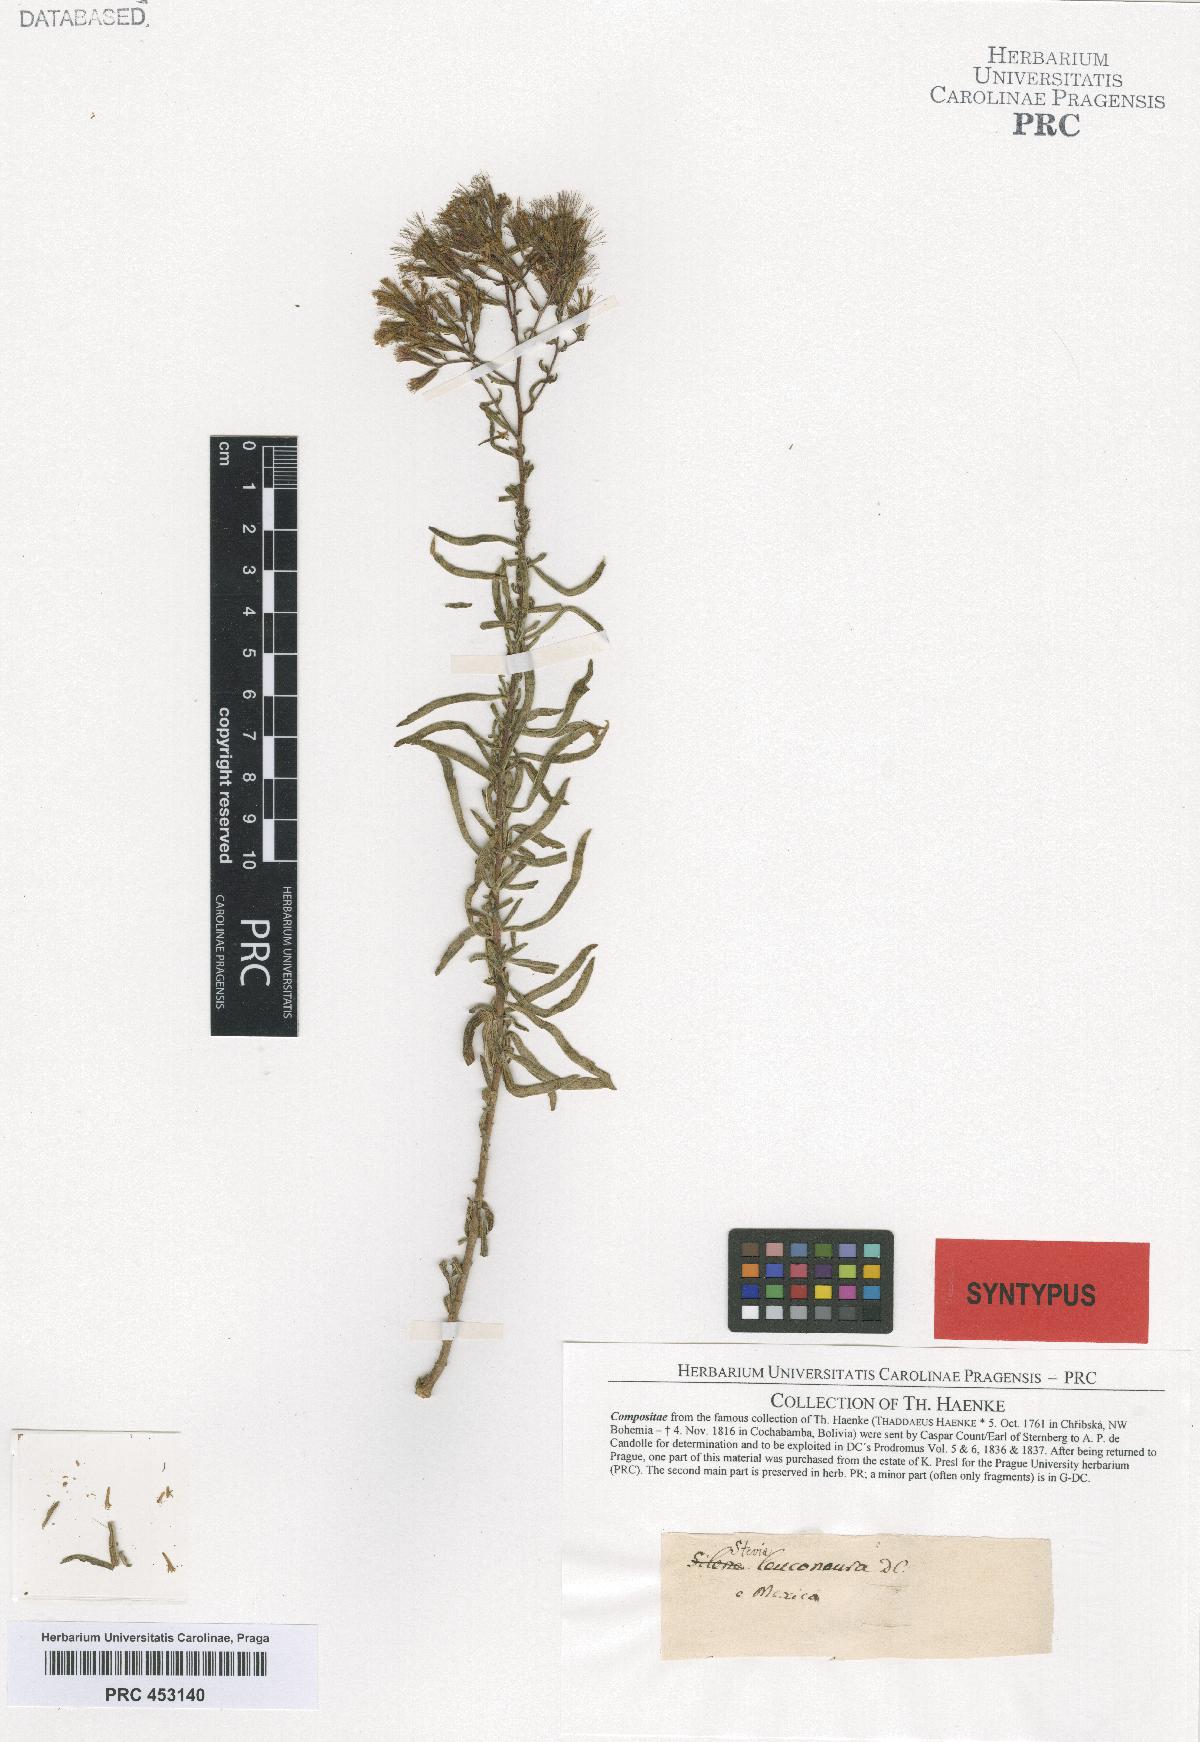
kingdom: Plantae
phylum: Tracheophyta
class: Magnoliopsida
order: Asterales
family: Asteraceae
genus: Stevia
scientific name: Stevia viscida
